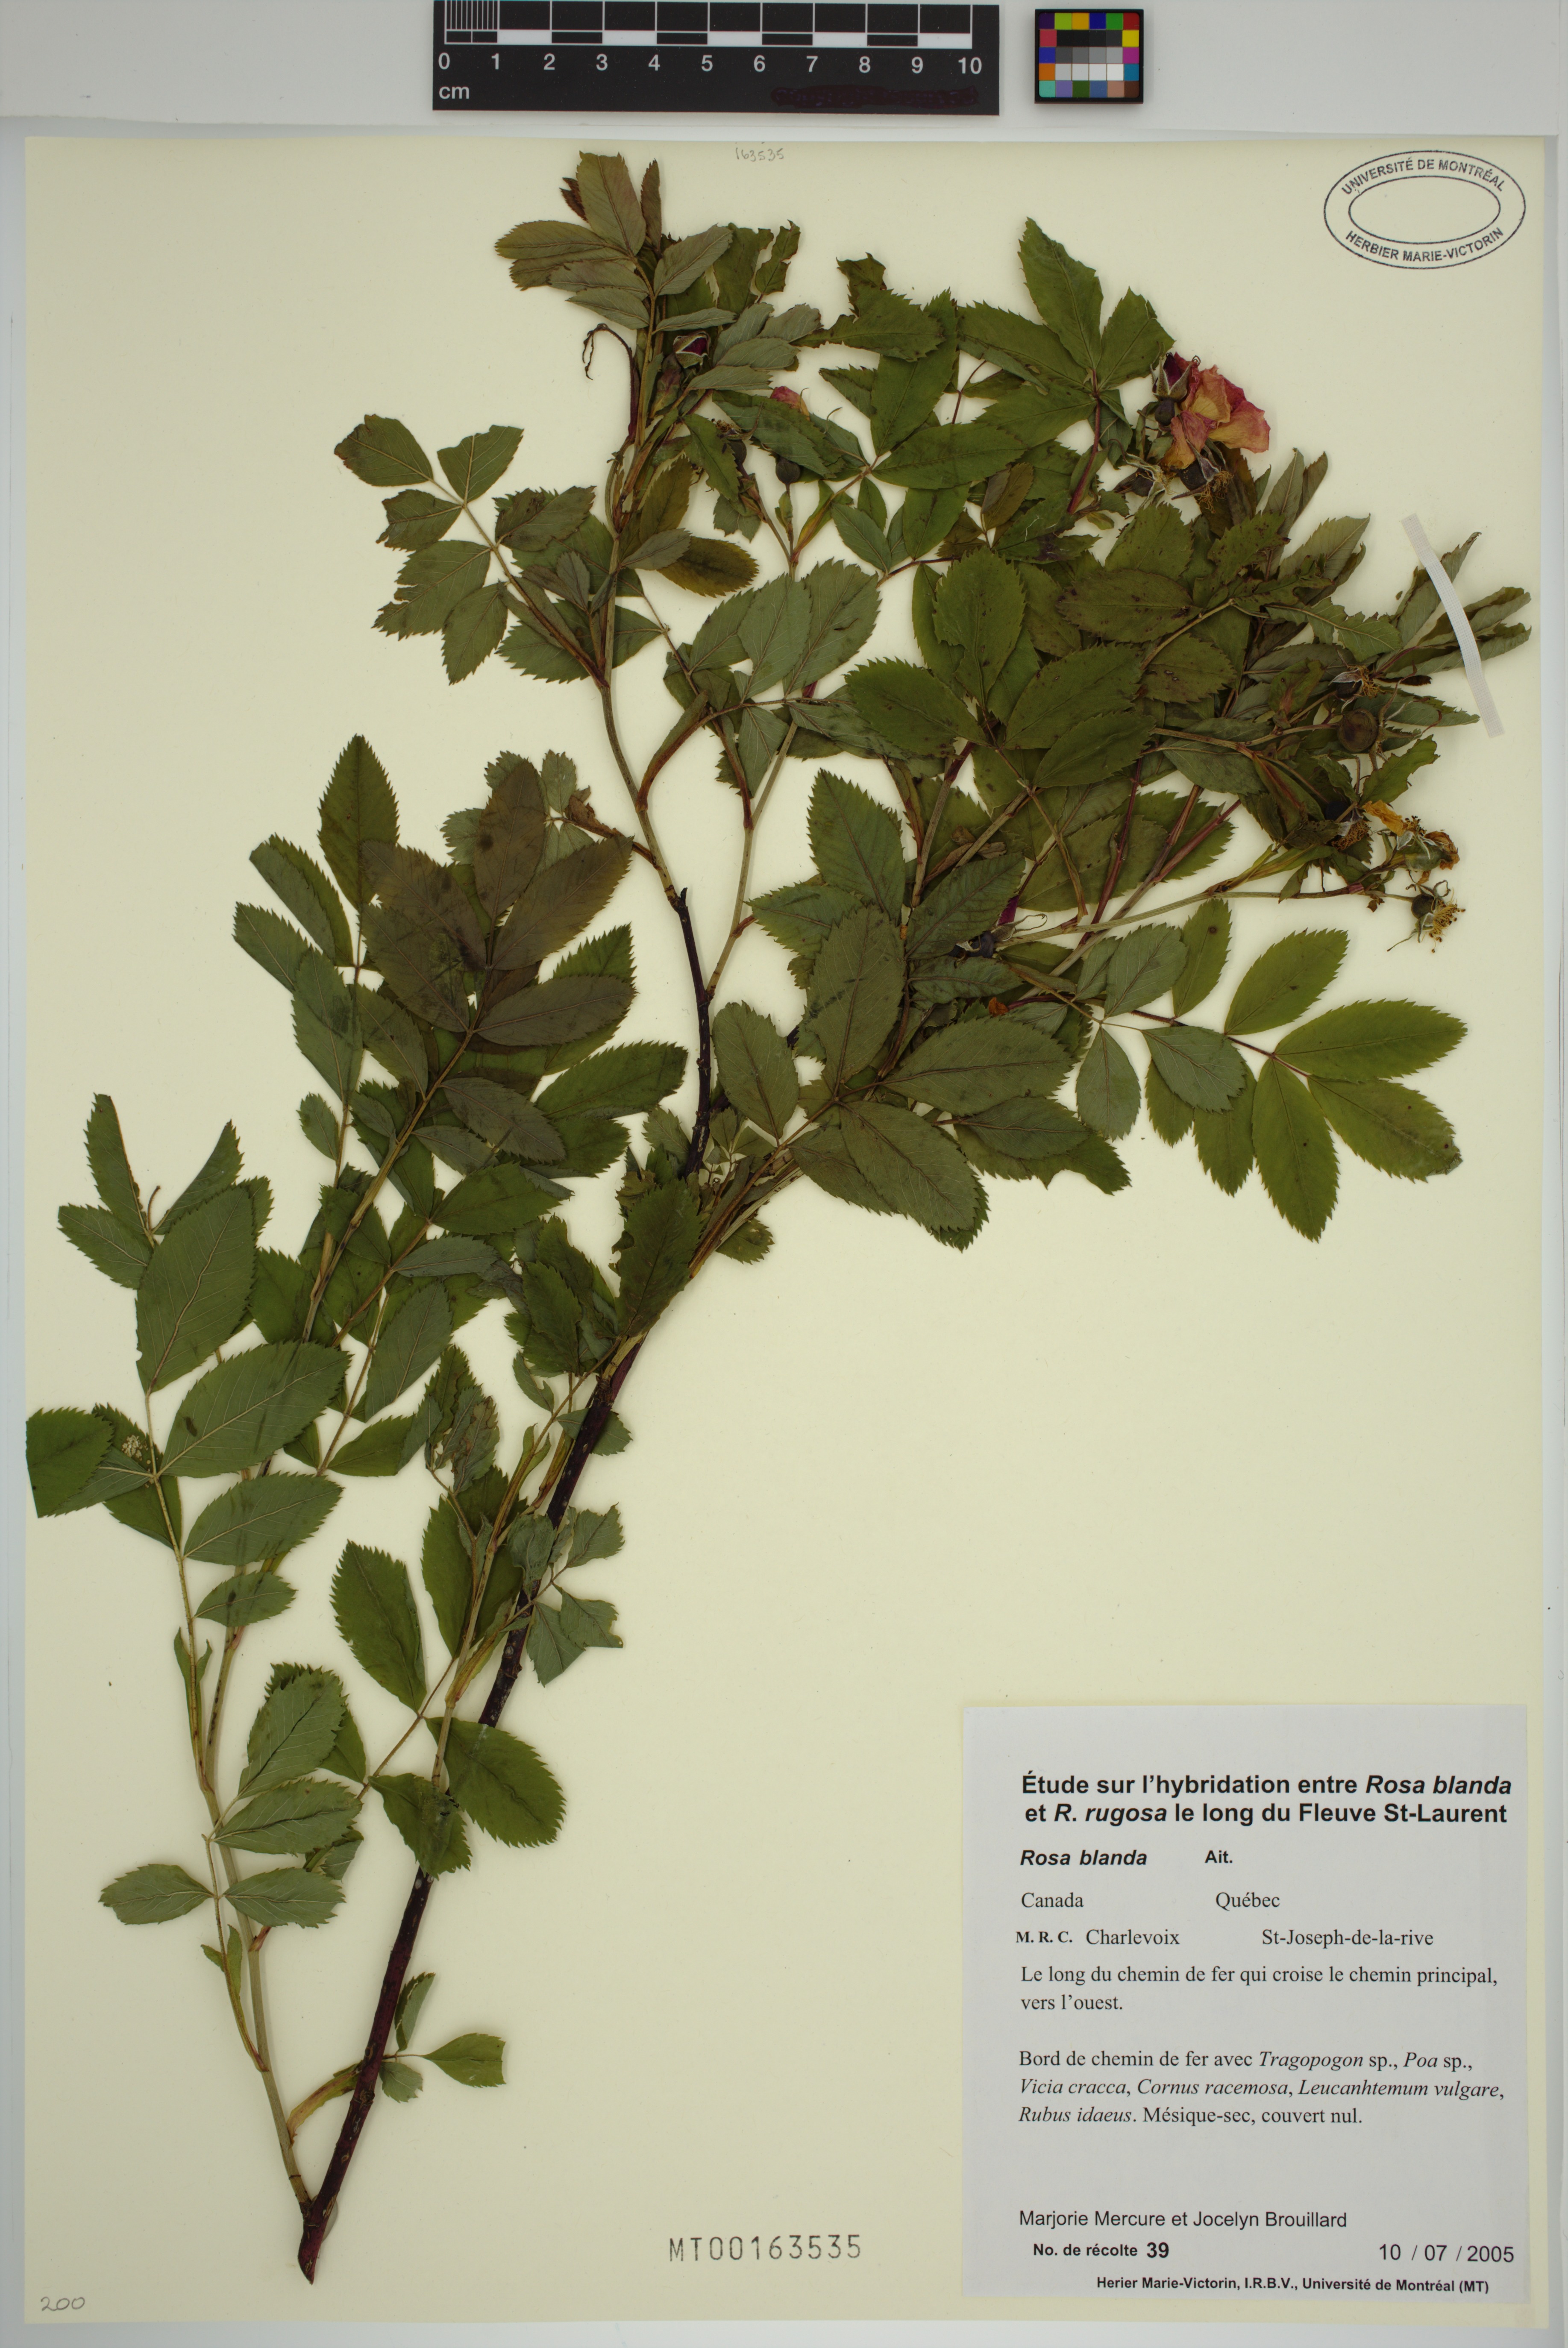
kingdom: Plantae
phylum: Tracheophyta
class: Magnoliopsida
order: Rosales
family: Rosaceae
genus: Rosa
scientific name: Rosa blanda
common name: Smooth rose
